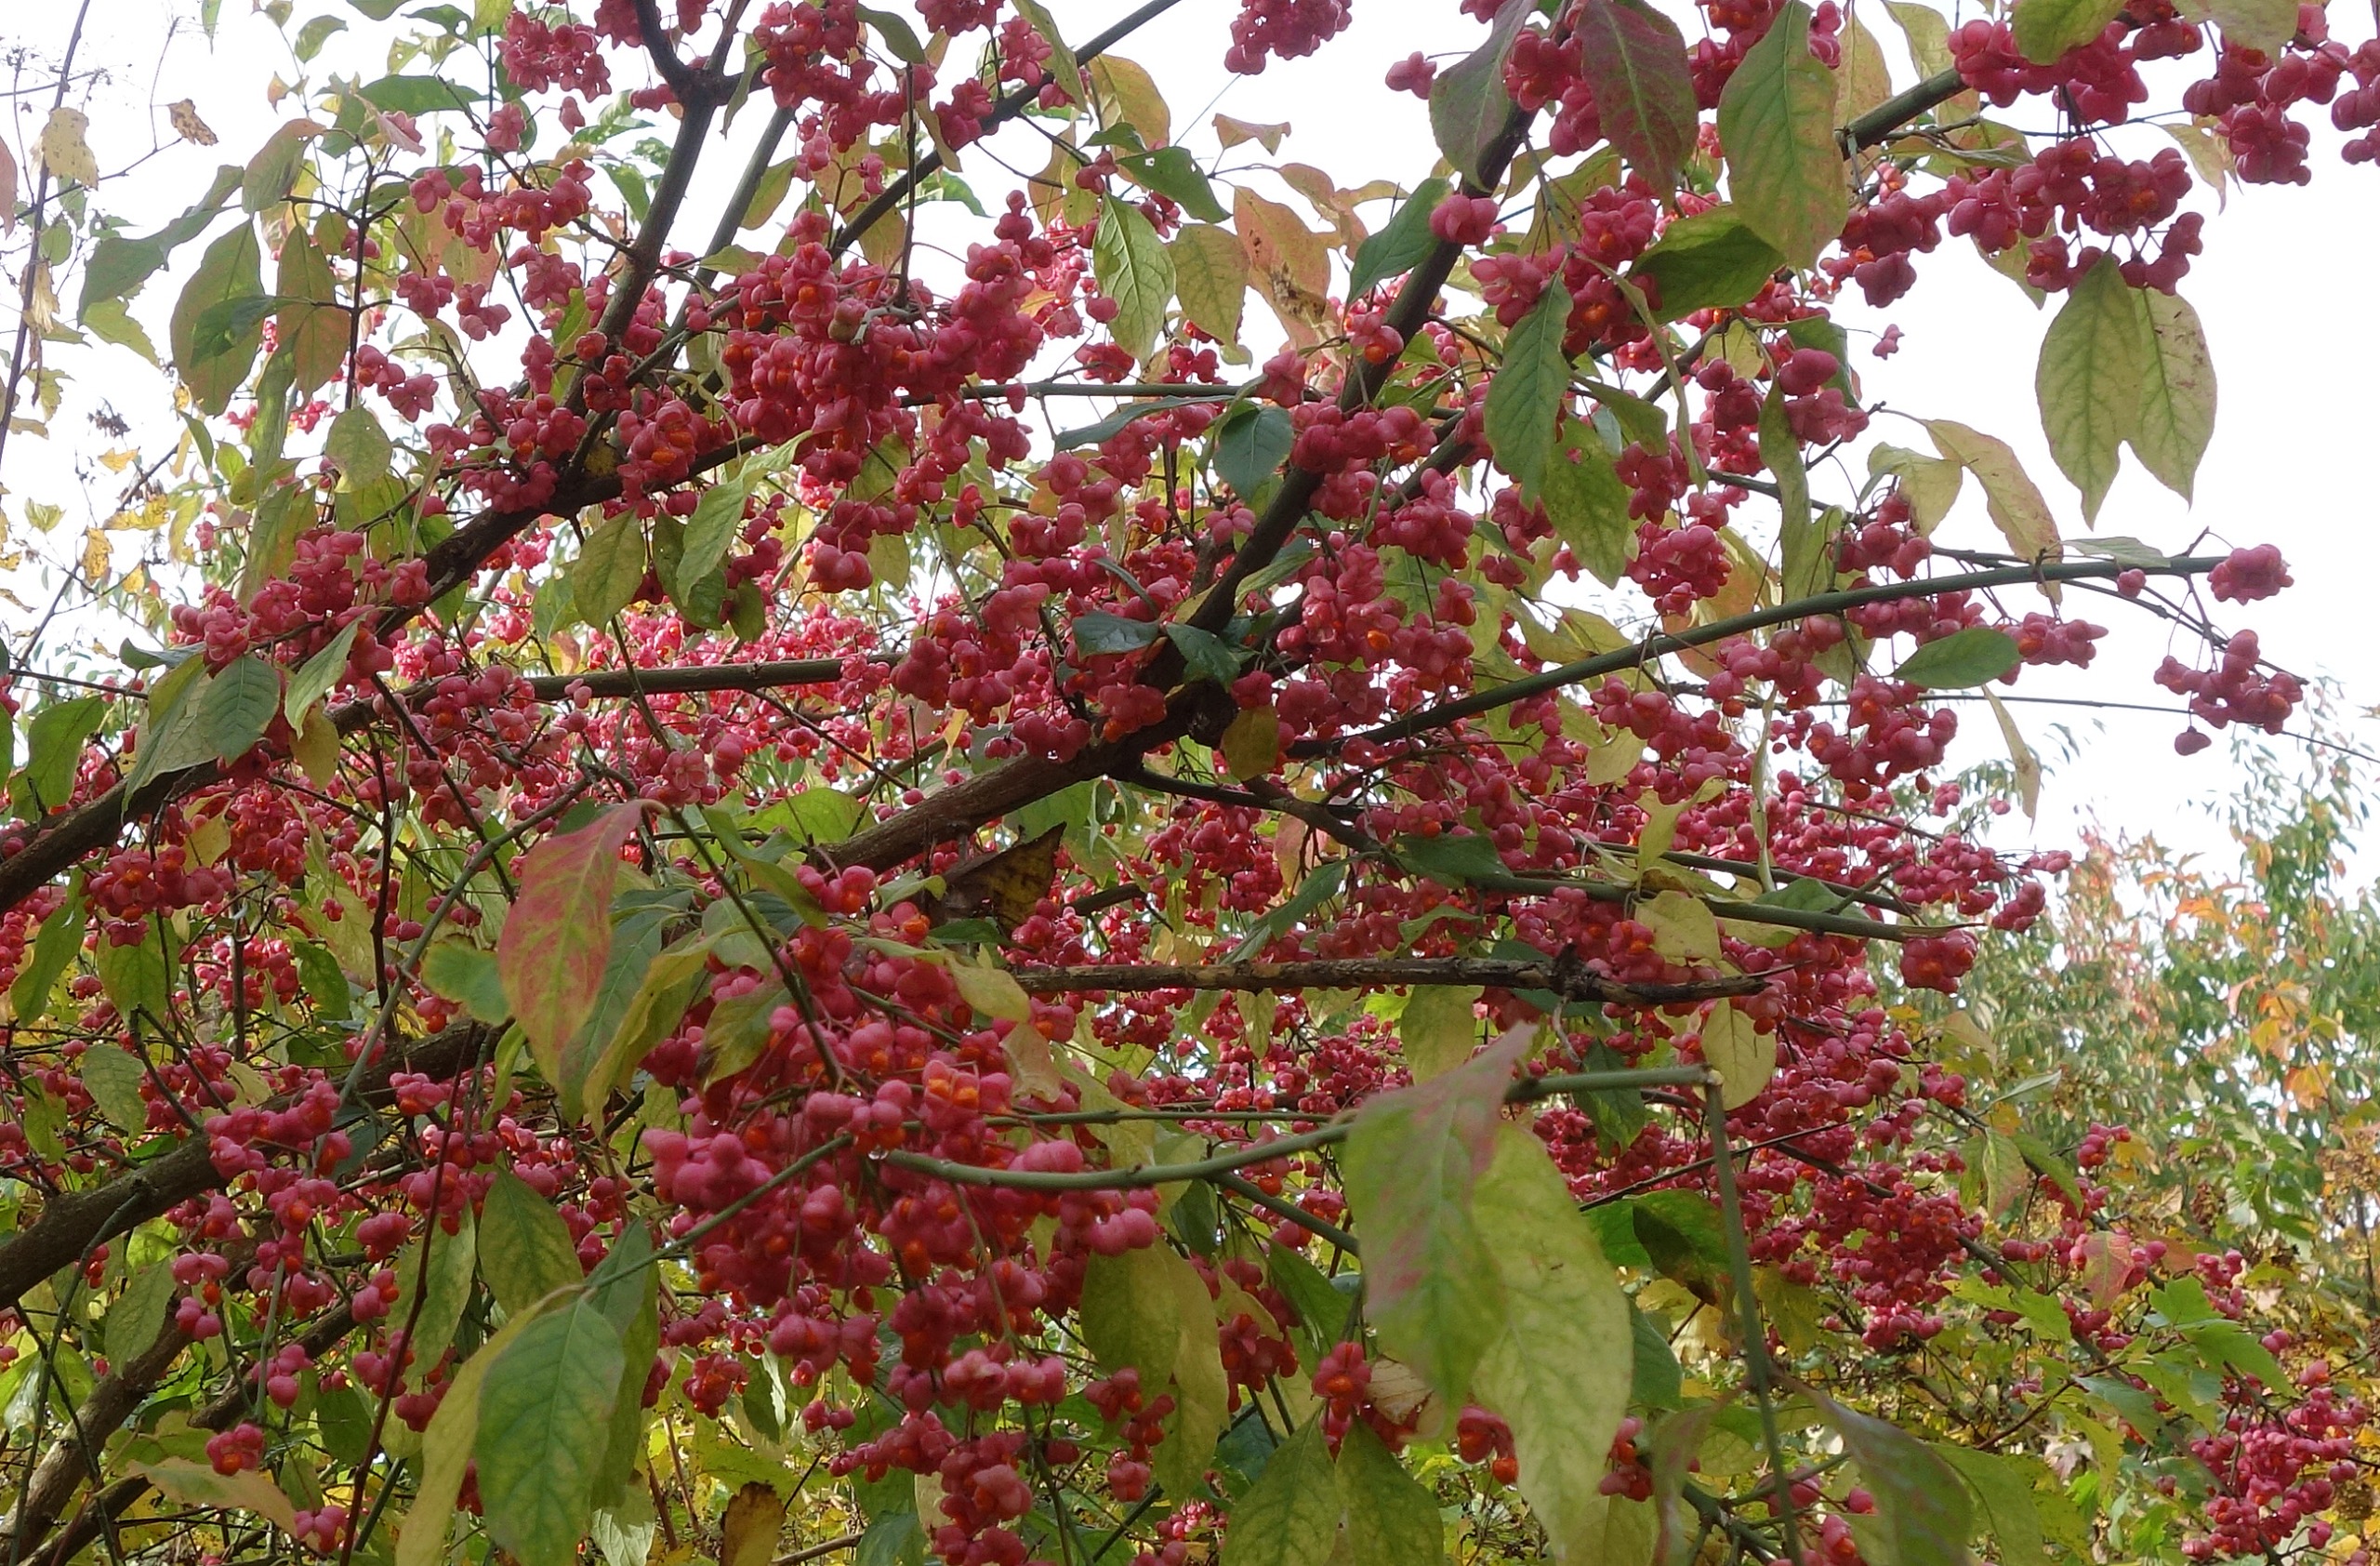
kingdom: Plantae
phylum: Tracheophyta
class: Magnoliopsida
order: Celastrales
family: Celastraceae
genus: Euonymus
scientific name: Euonymus europaeus
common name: Benved
